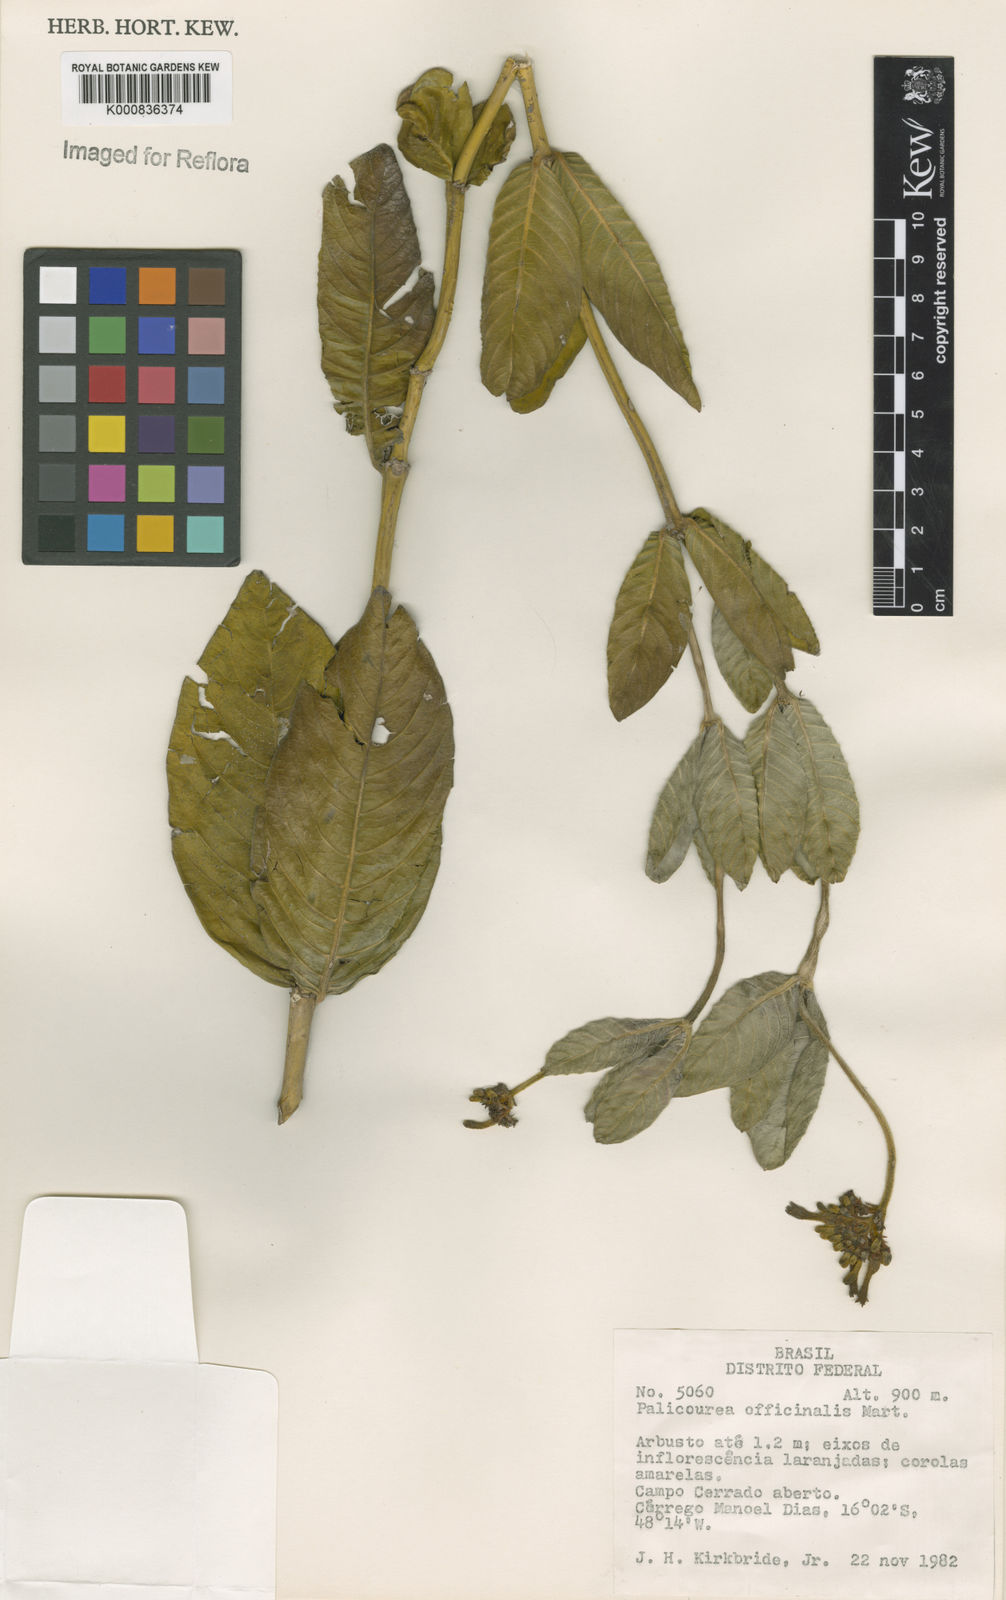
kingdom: Plantae
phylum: Tracheophyta
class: Magnoliopsida
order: Gentianales
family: Rubiaceae
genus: Palicourea
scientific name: Palicourea officinalis
